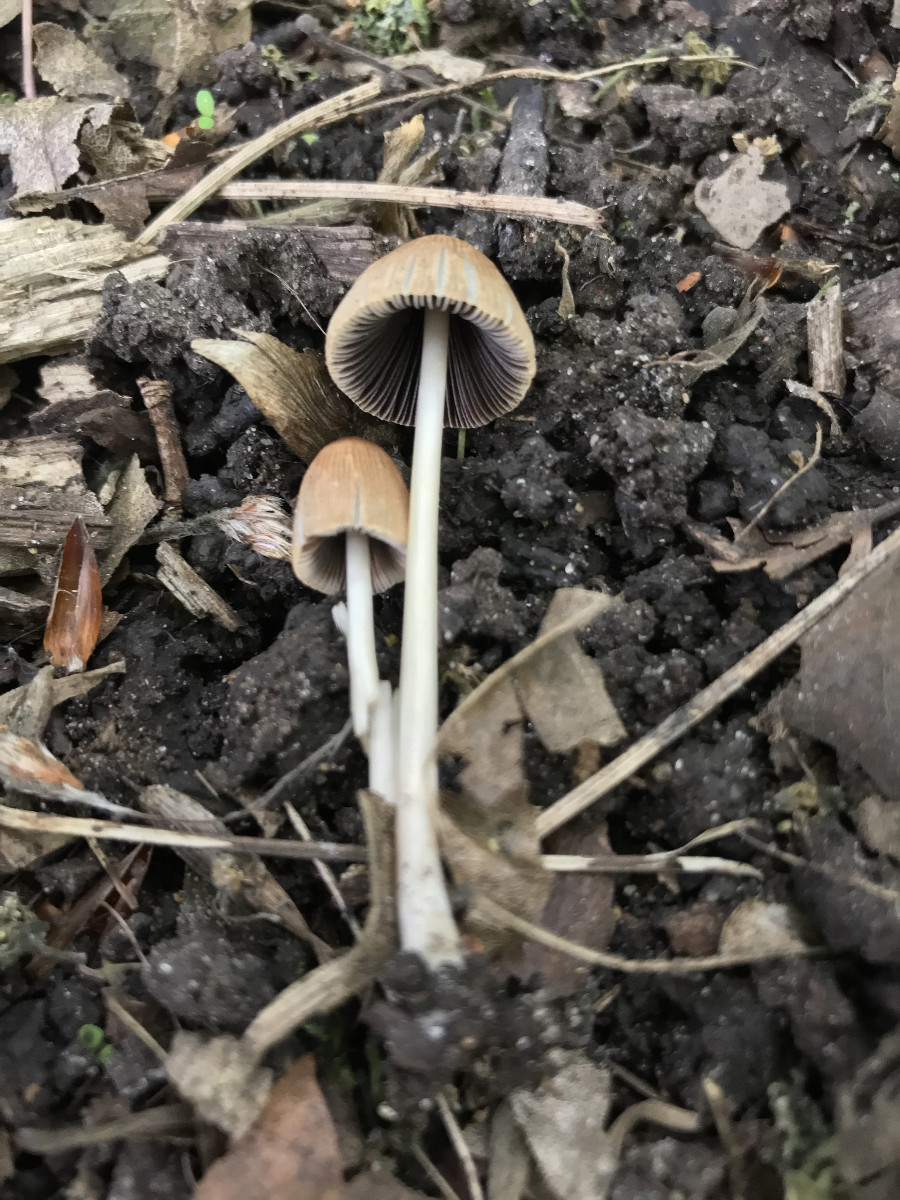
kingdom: Fungi
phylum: Basidiomycota
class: Agaricomycetes
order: Agaricales
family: Psathyrellaceae
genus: Parasola
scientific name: Parasola
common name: hjulhat
